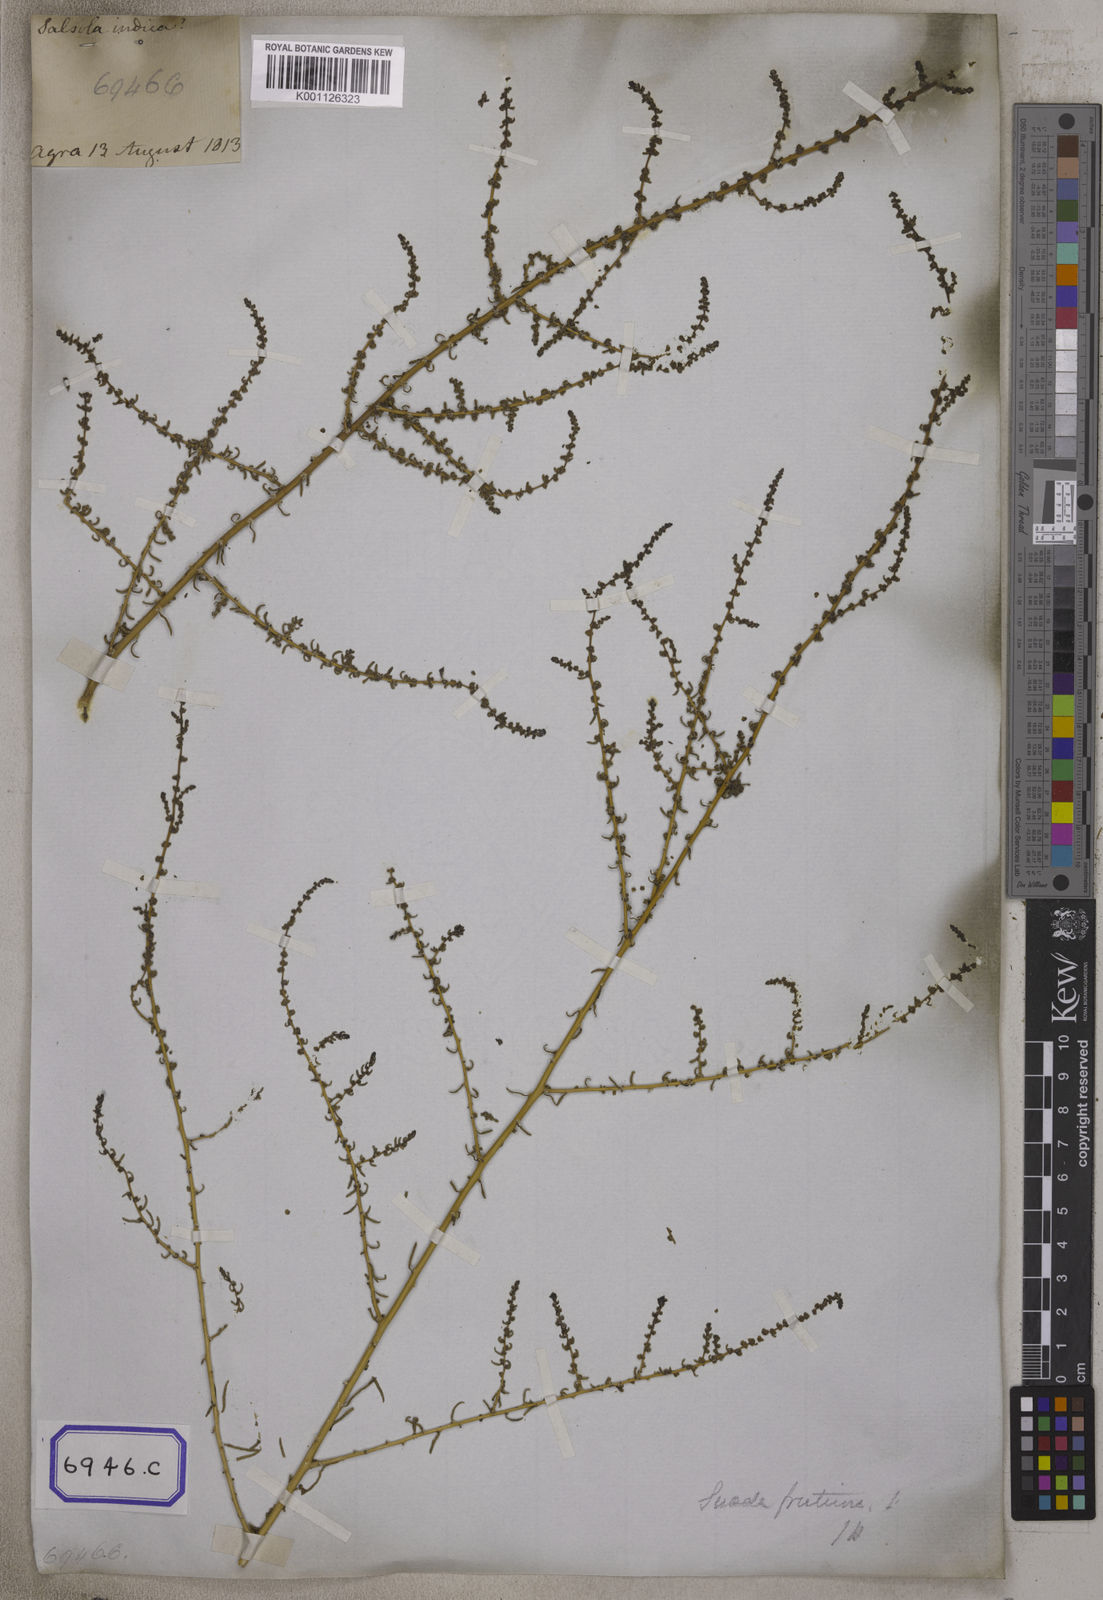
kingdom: Plantae
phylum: Tracheophyta
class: Magnoliopsida
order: Caryophyllales
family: Amaranthaceae
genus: Suaeda
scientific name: Suaeda vermiculata
